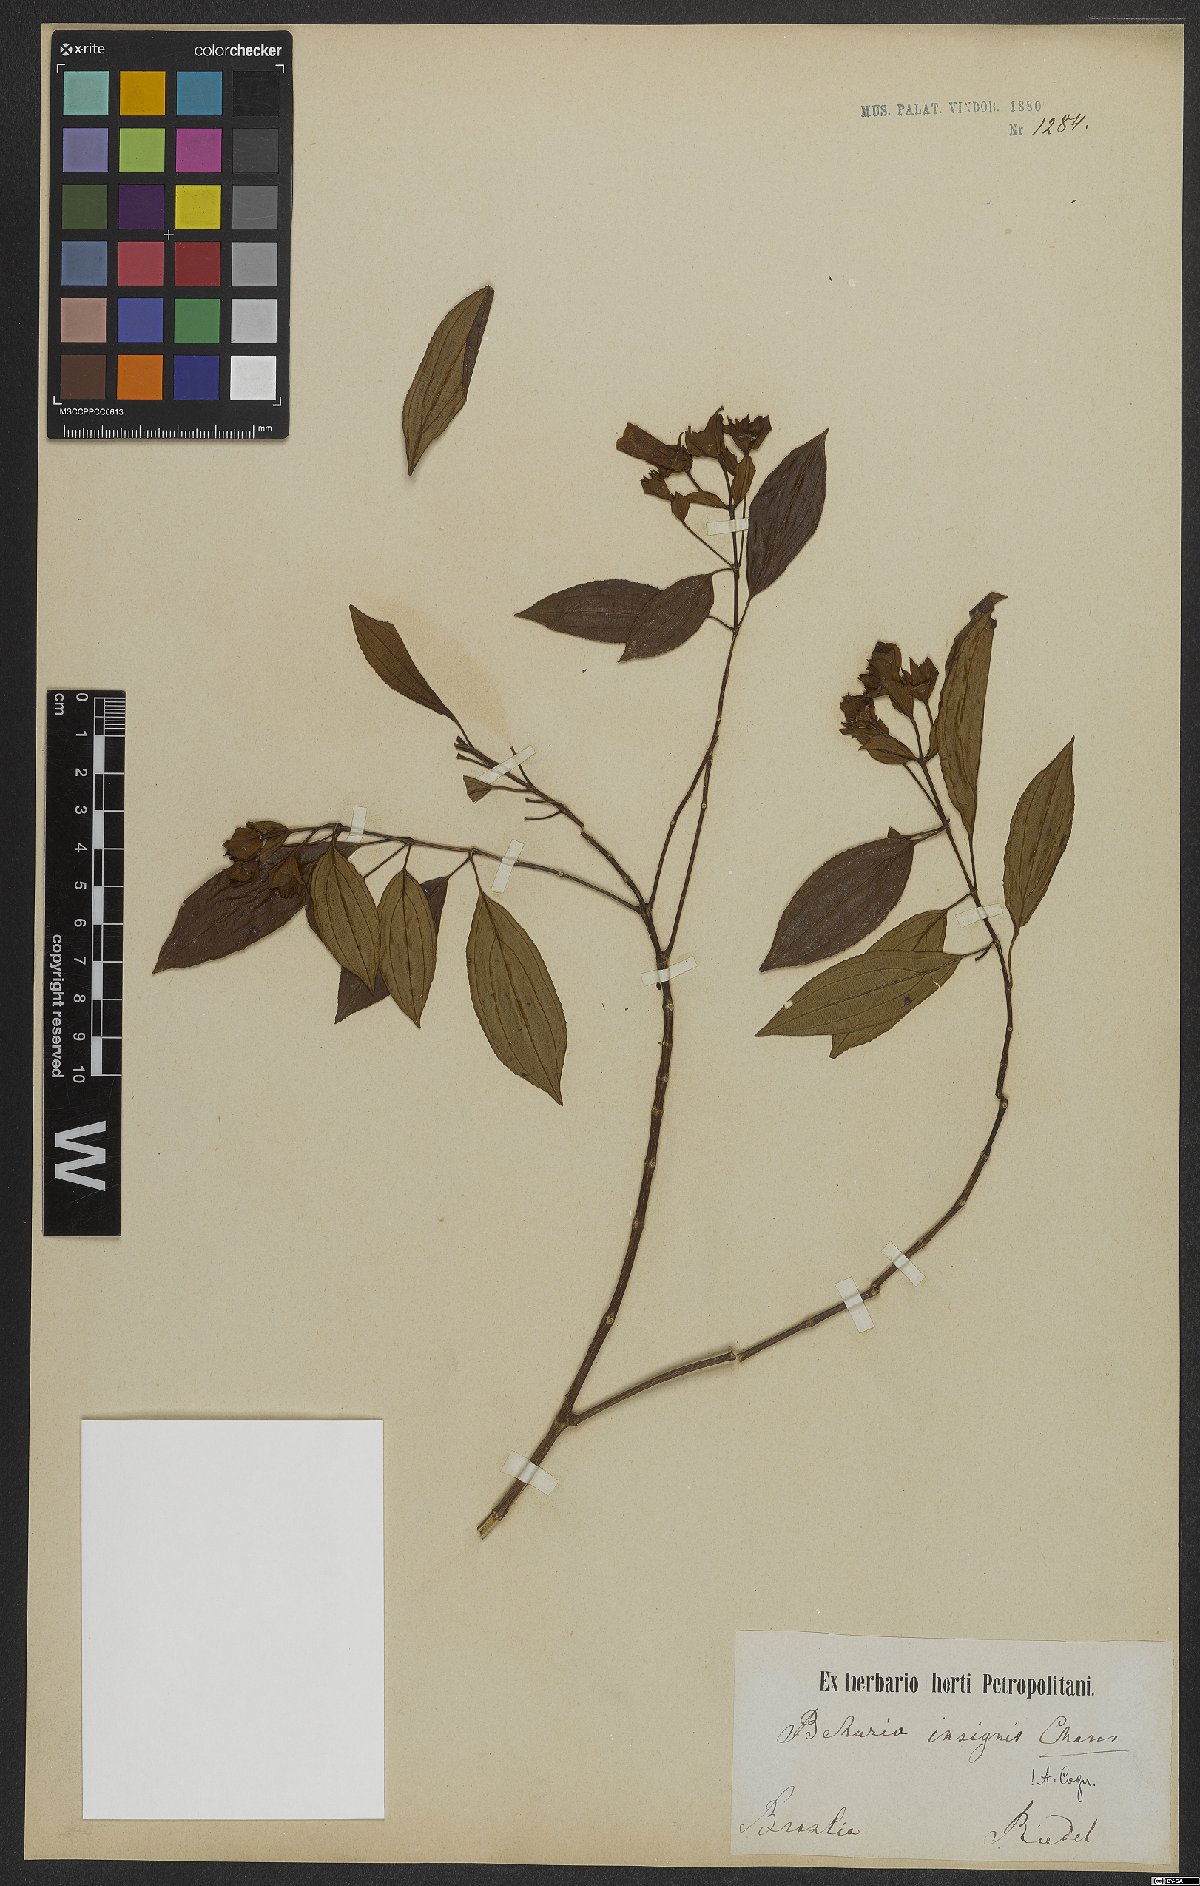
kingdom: Plantae
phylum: Tracheophyta
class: Magnoliopsida
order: Myrtales
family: Melastomataceae
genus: Huberia
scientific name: Huberia insignis
